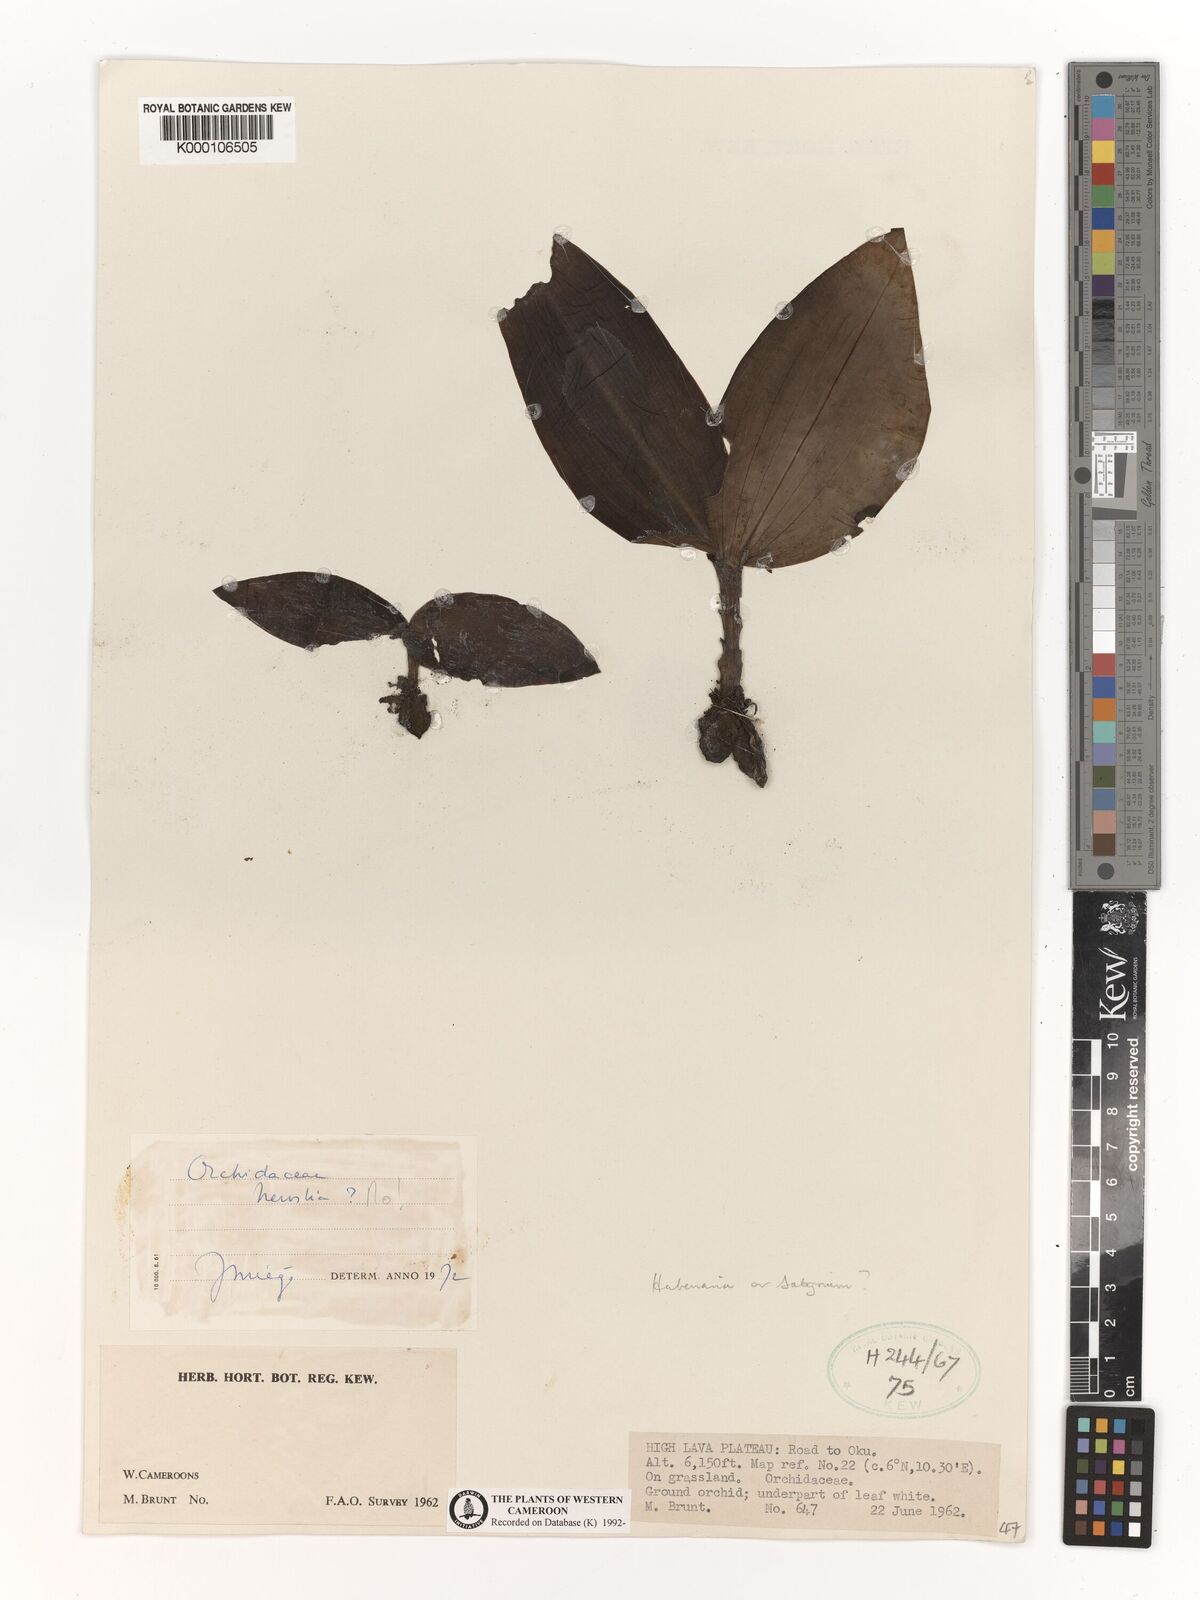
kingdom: Plantae
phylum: Tracheophyta
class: Liliopsida
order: Asparagales
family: Orchidaceae
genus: Habenaria
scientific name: Habenaria
